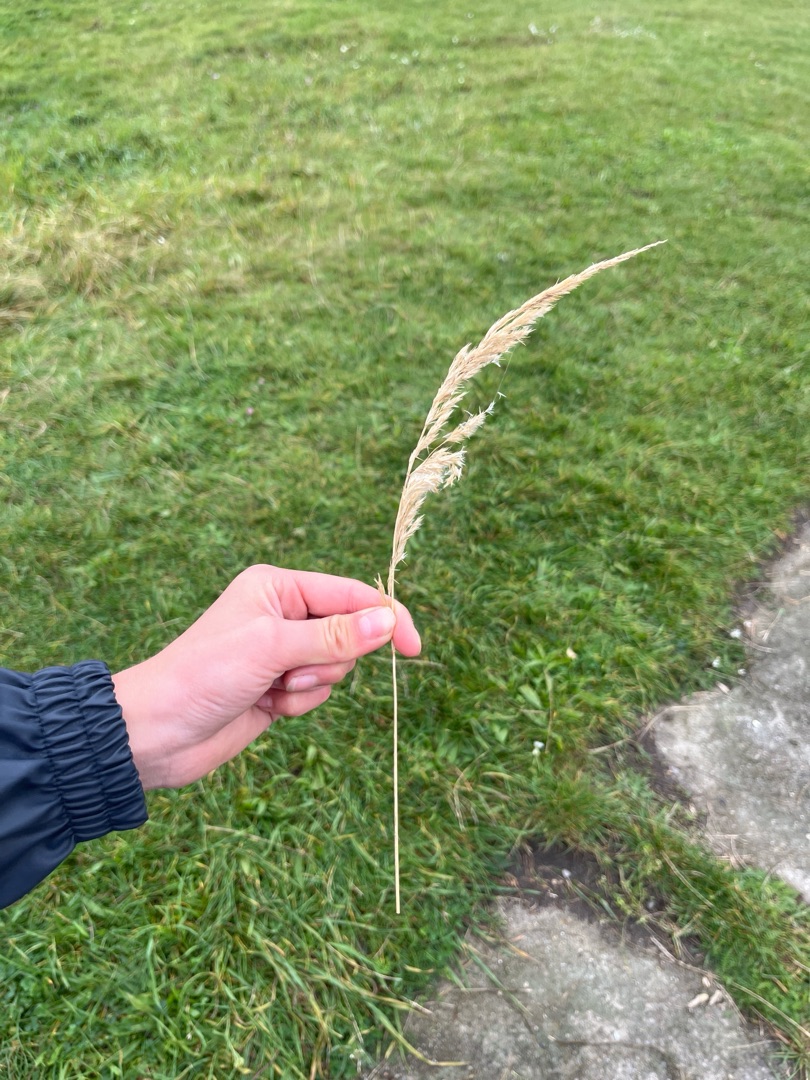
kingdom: Plantae
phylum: Tracheophyta
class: Liliopsida
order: Poales
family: Poaceae
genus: Calamagrostis
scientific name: Calamagrostis epigejos
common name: Bjerg-rørhvene
